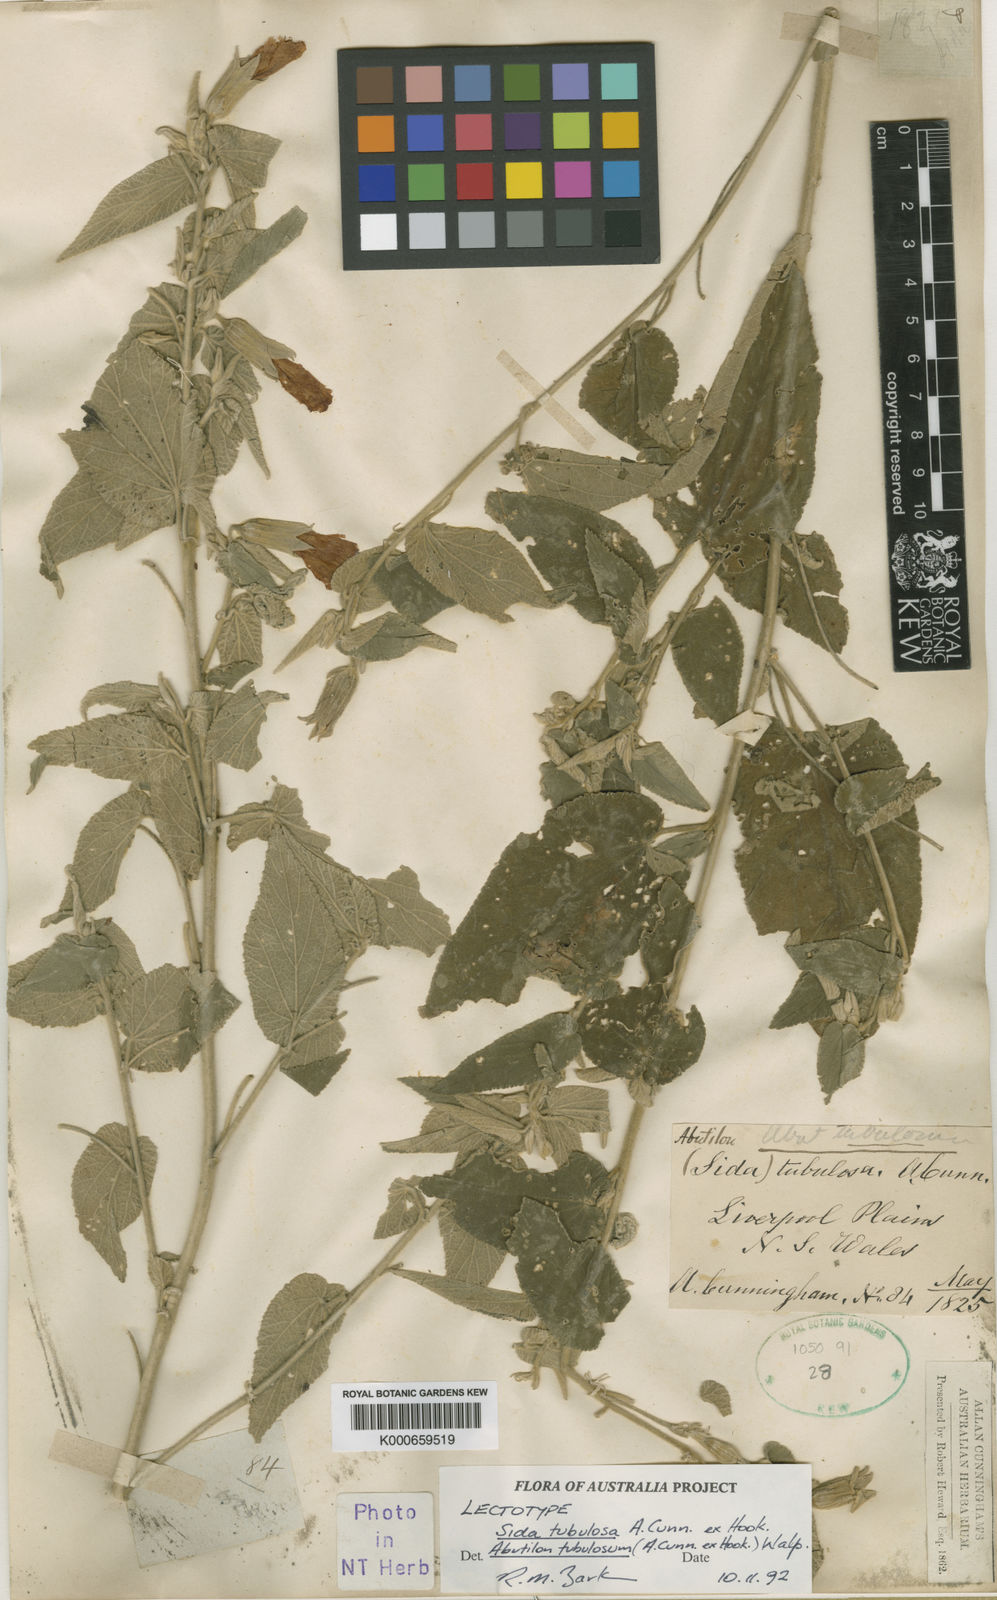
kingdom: Plantae
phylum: Tracheophyta
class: Magnoliopsida
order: Malvales
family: Malvaceae
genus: Abutilon
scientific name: Abutilon tubulosum
